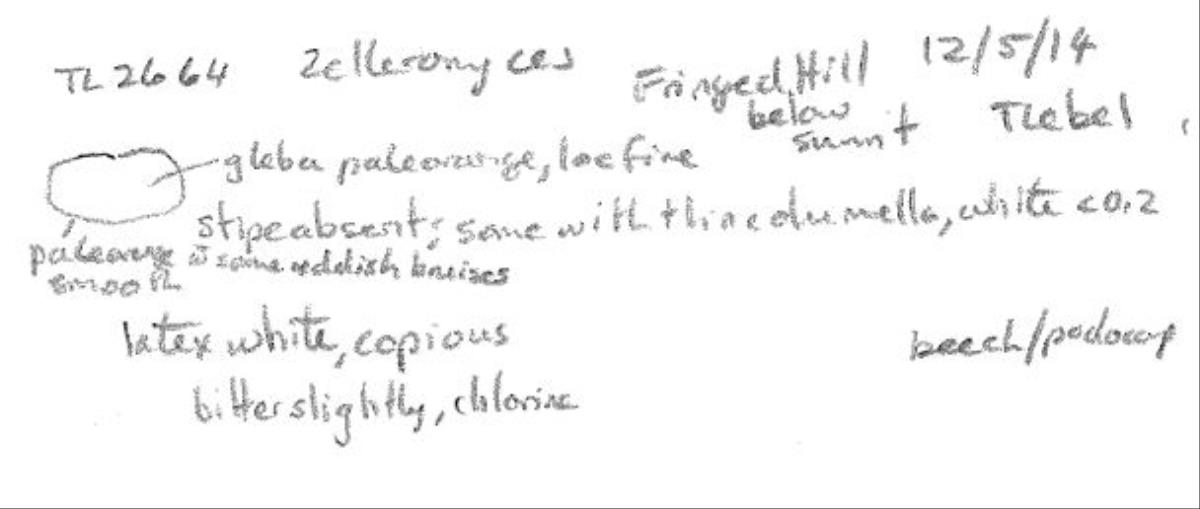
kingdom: Fungi
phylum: Basidiomycota
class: Agaricomycetes
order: Russulales
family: Russulaceae
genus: Zelleromyces
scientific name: Zelleromyces
